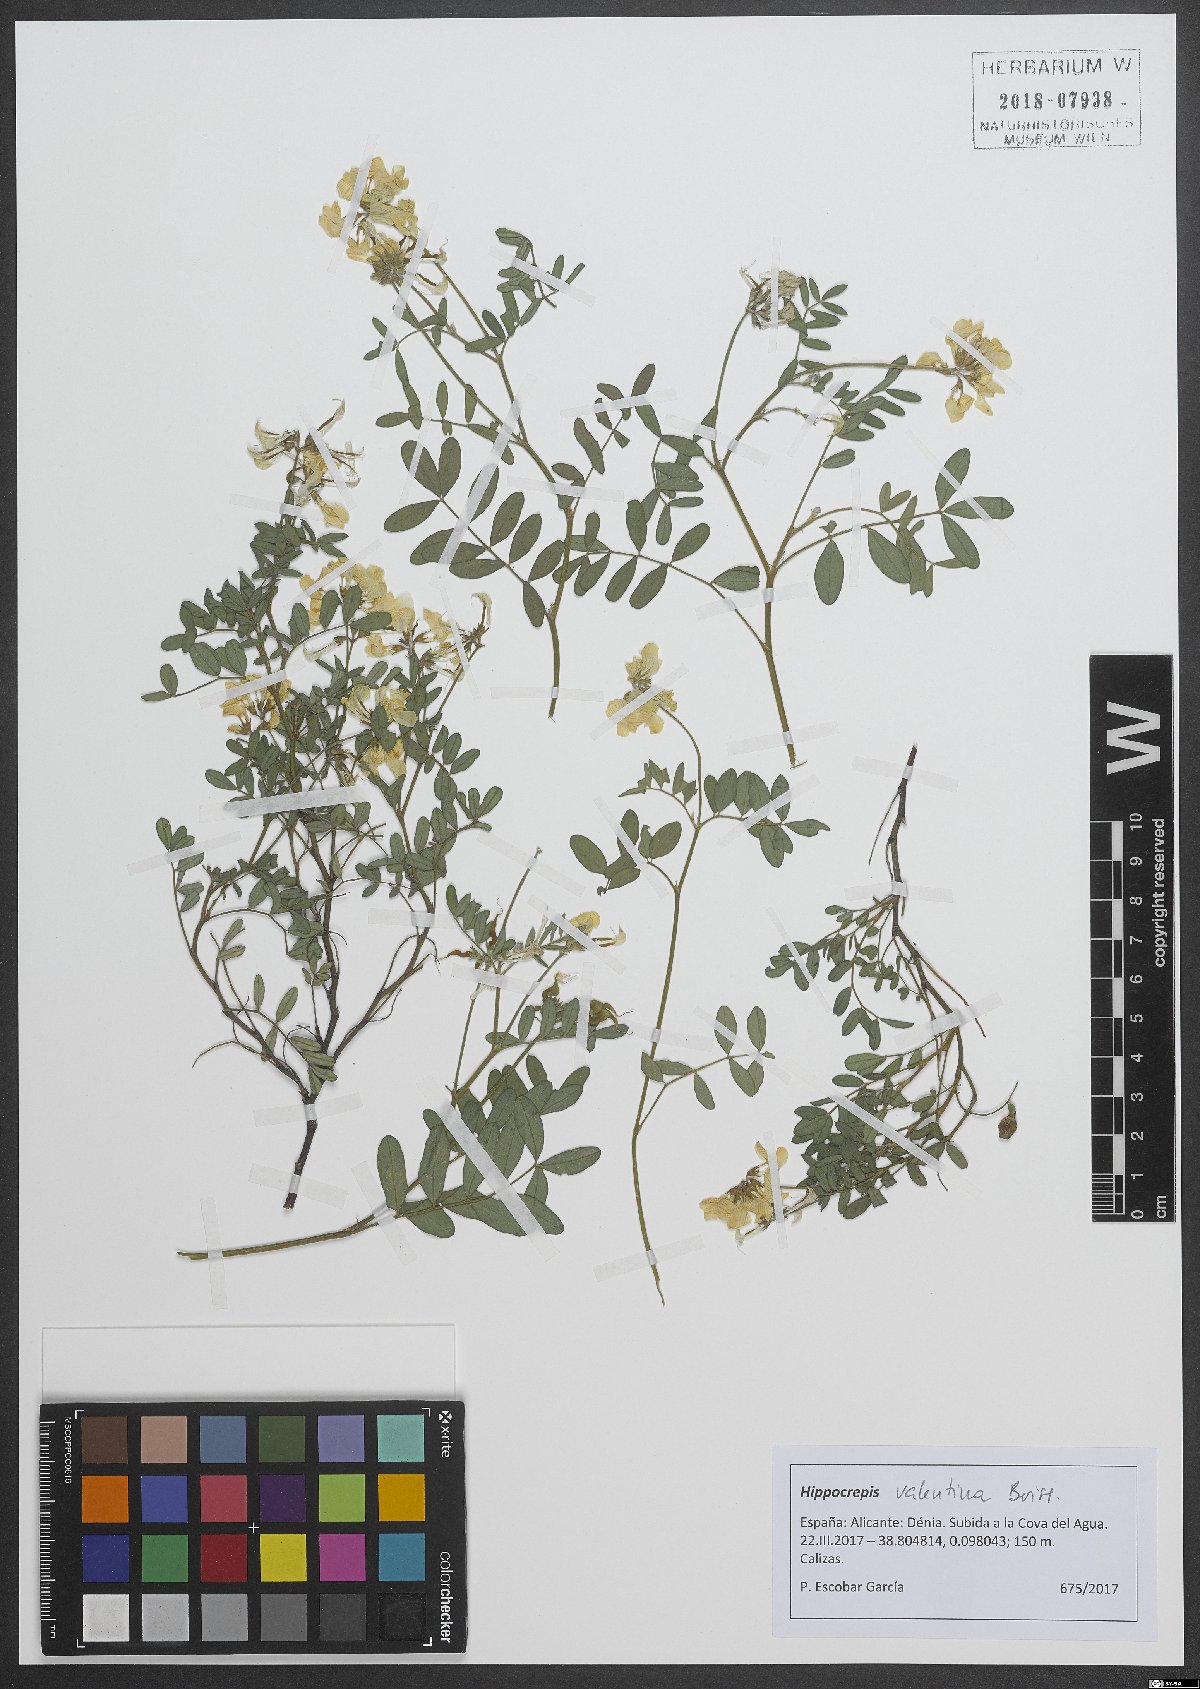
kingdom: Plantae
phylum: Tracheophyta
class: Magnoliopsida
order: Fabales
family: Fabaceae
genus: Hippocrepis
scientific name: Hippocrepis valentina
